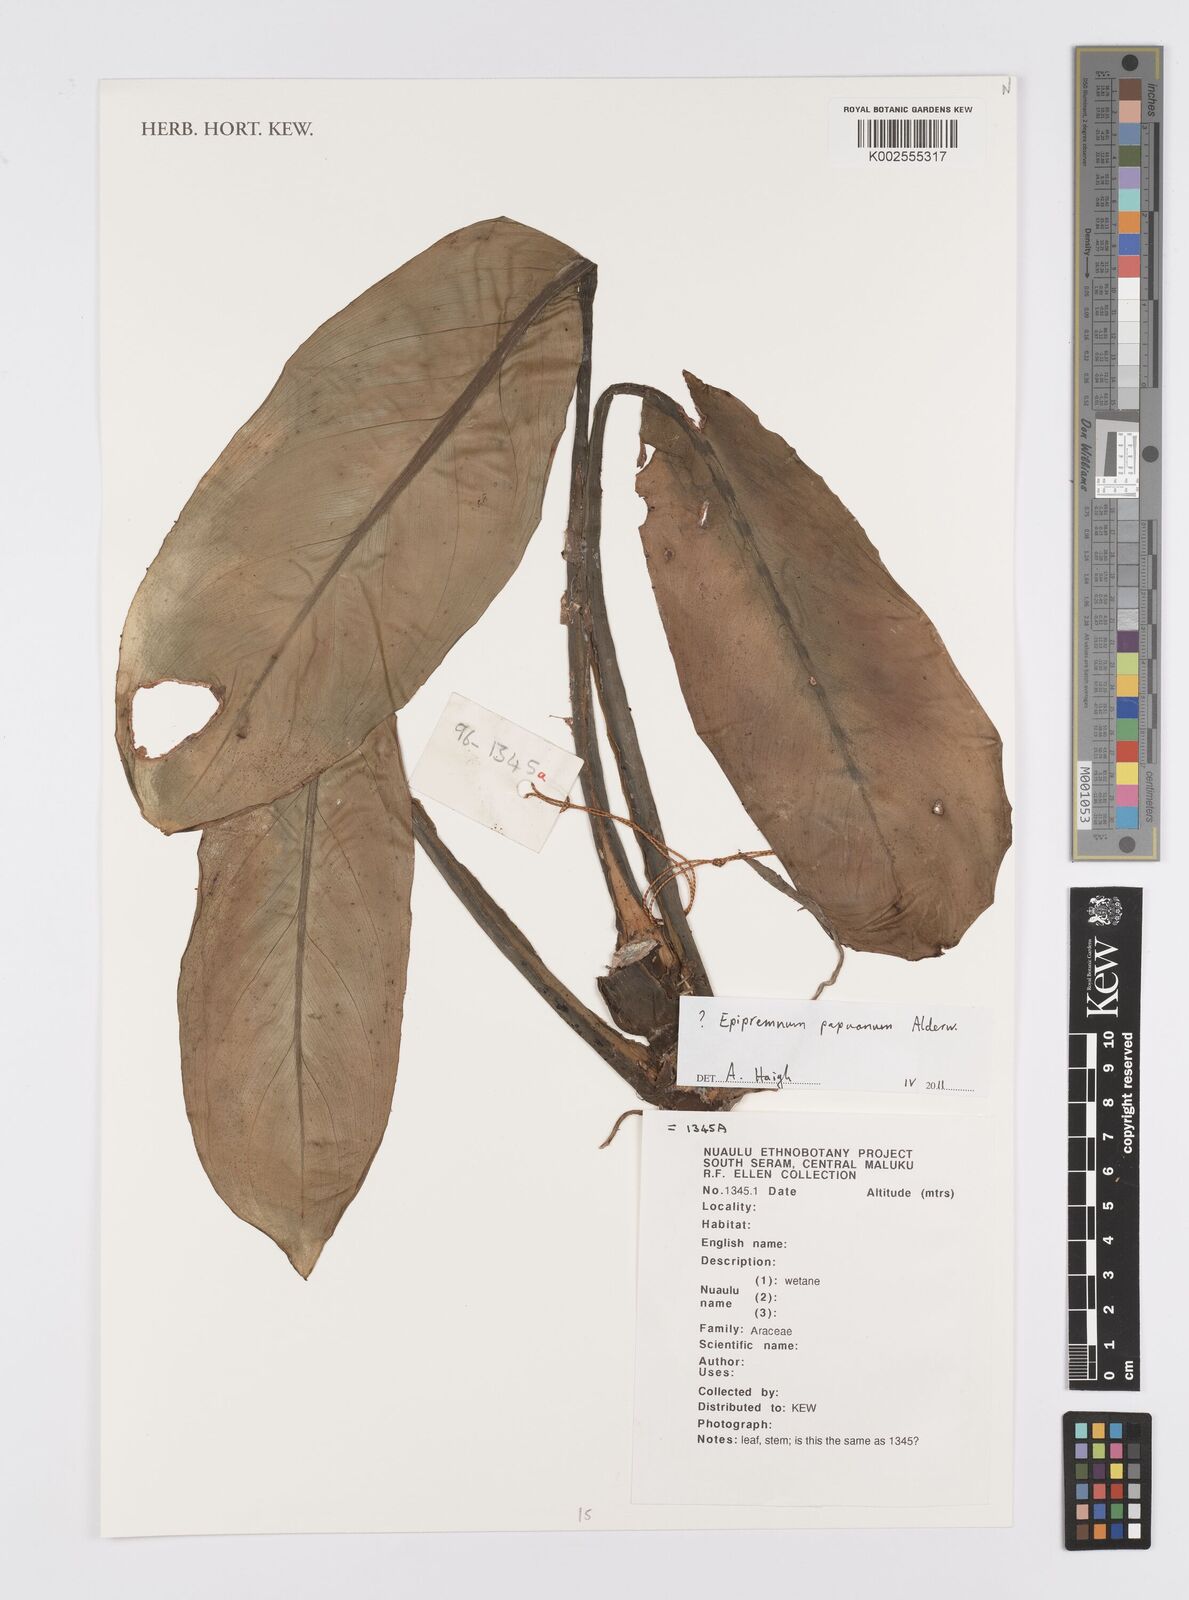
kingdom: Plantae
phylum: Tracheophyta
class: Liliopsida
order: Alismatales
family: Araceae
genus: Epipremnum
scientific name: Epipremnum papuanum
